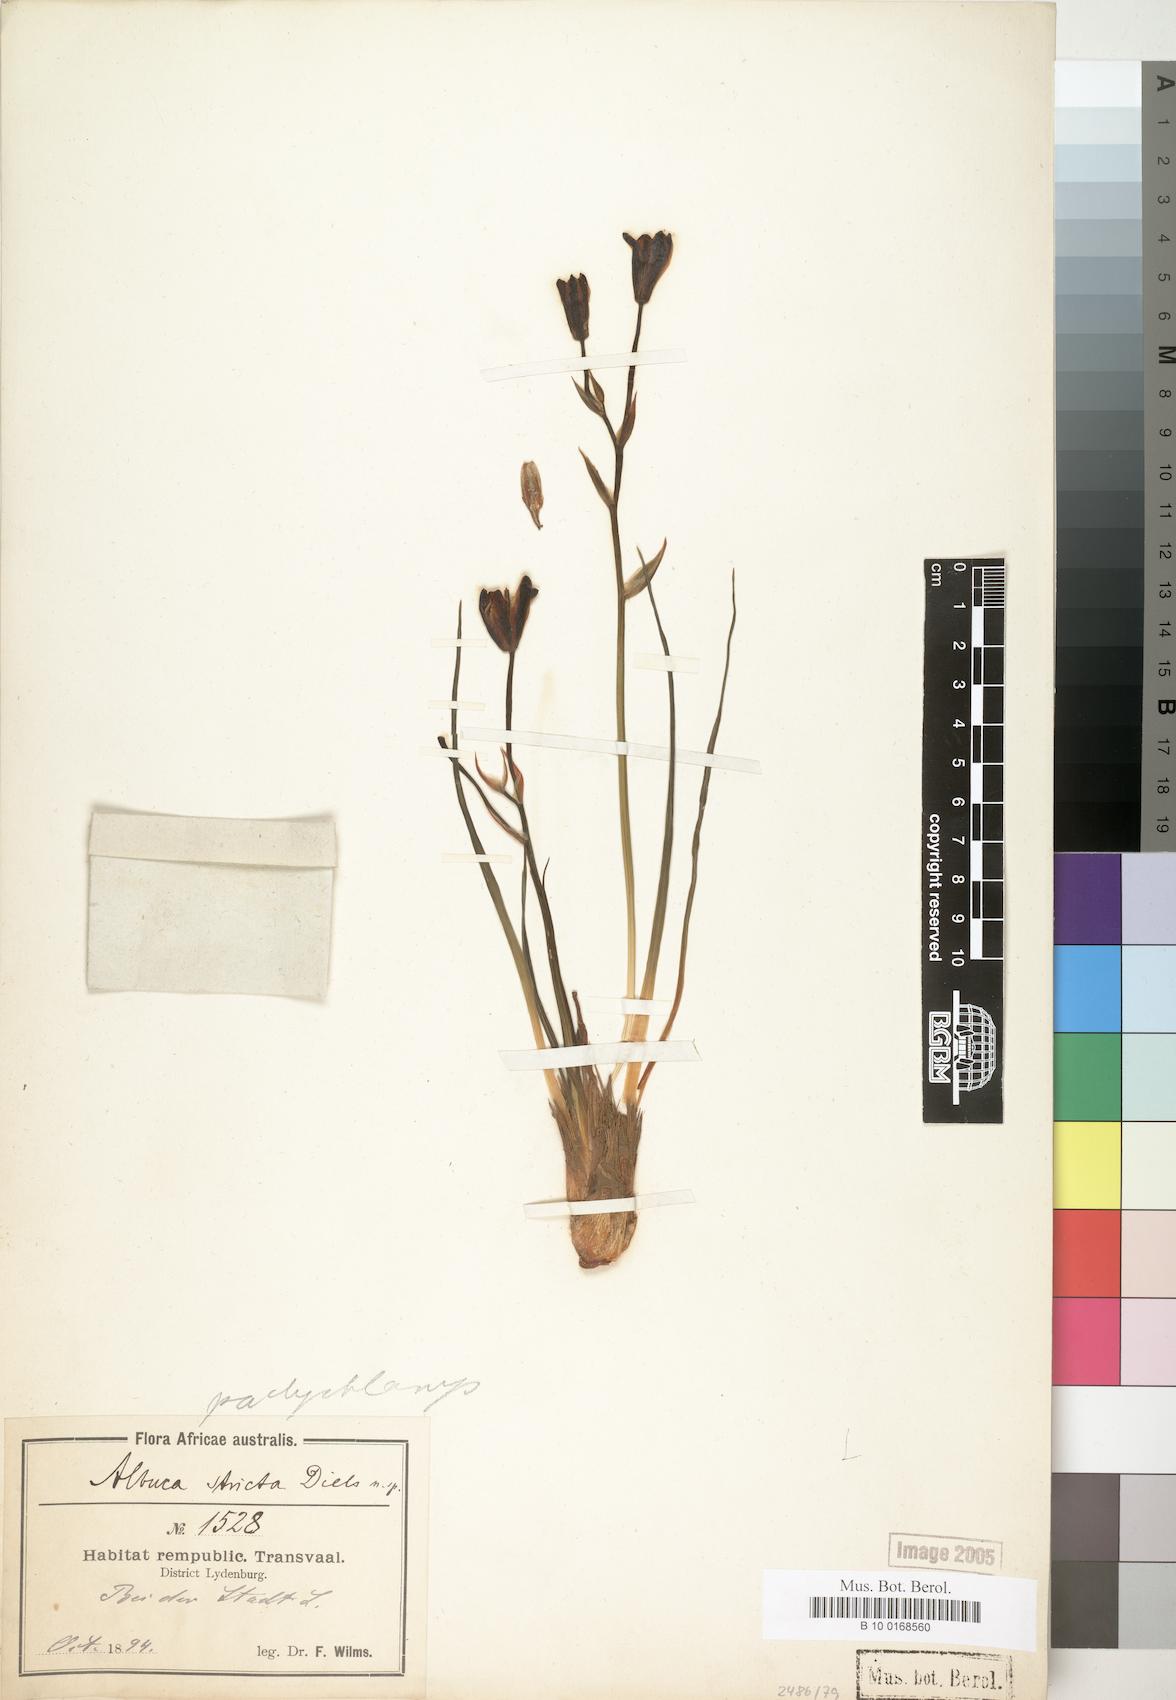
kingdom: Plantae
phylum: Tracheophyta
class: Liliopsida
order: Asparagales
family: Asparagaceae
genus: Albuca
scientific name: Albuca
